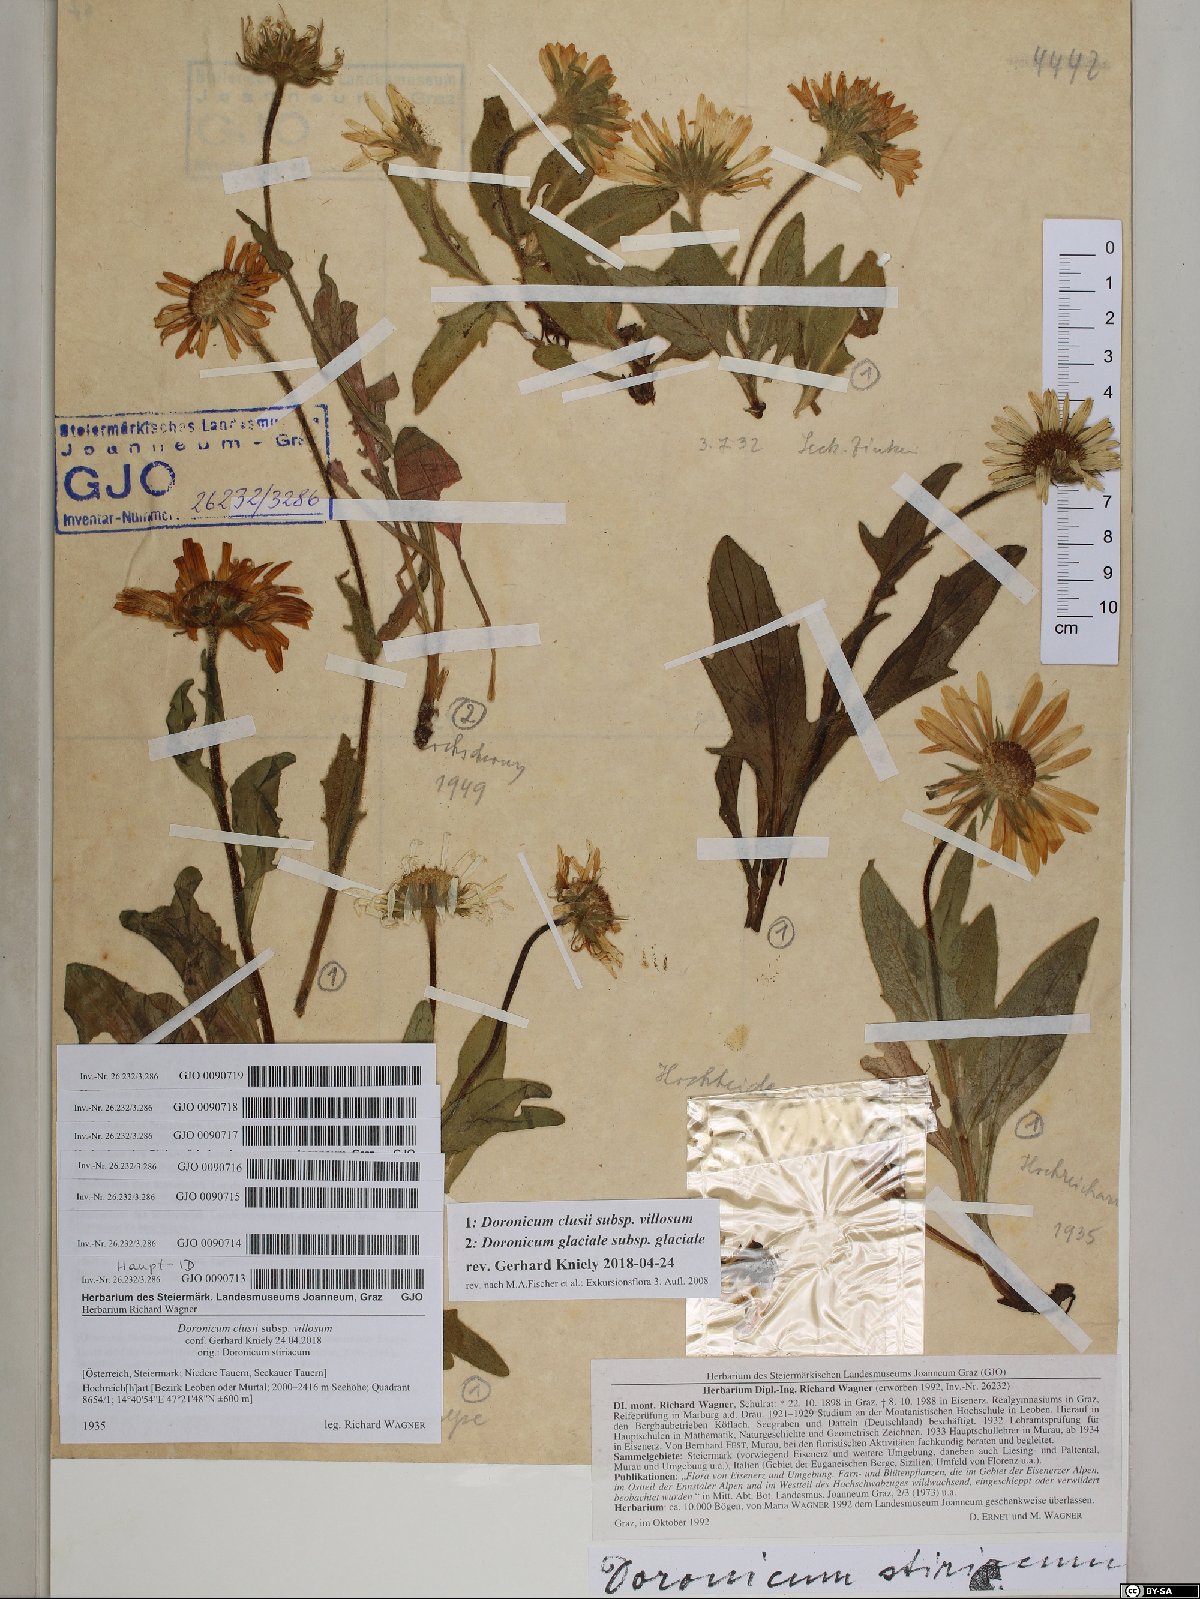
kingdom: Plantae
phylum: Tracheophyta
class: Magnoliopsida
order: Asterales
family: Asteraceae
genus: Doronicum
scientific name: Doronicum clusii
